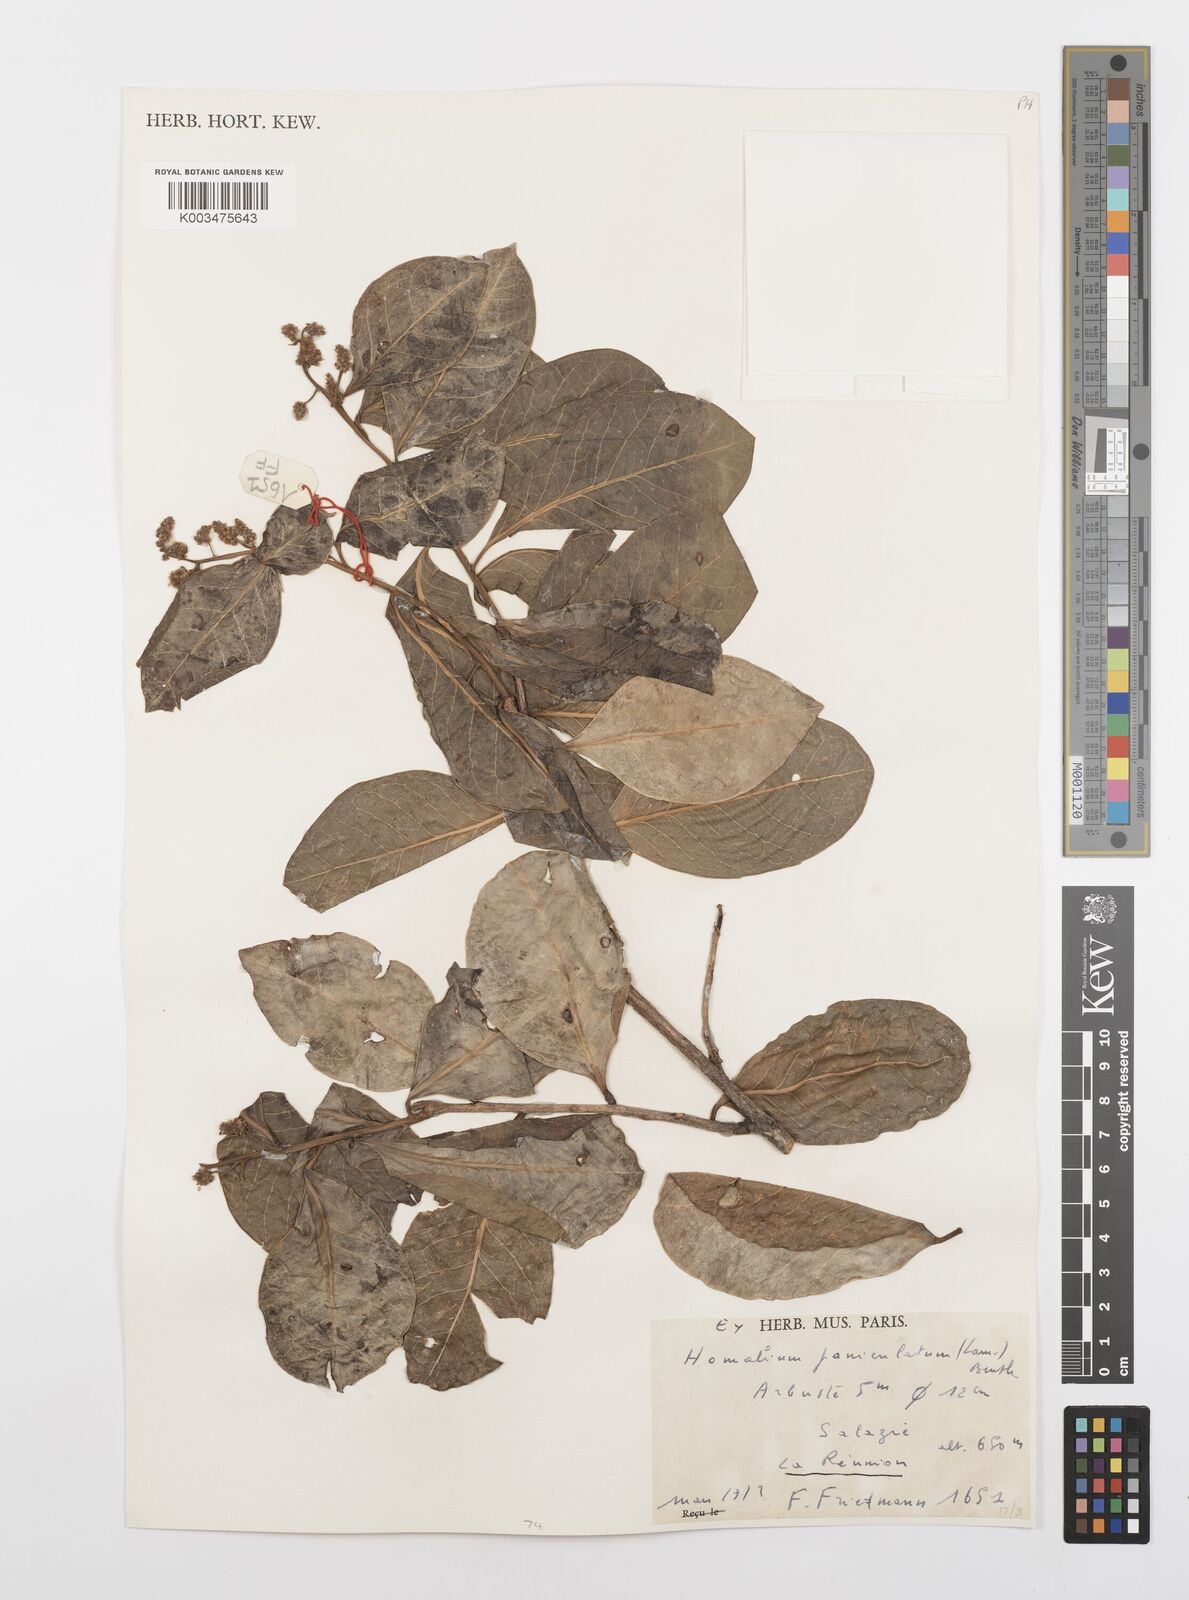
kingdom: Plantae
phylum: Tracheophyta
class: Magnoliopsida
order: Malpighiales
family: Salicaceae
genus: Homalium
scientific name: Homalium erianthum
